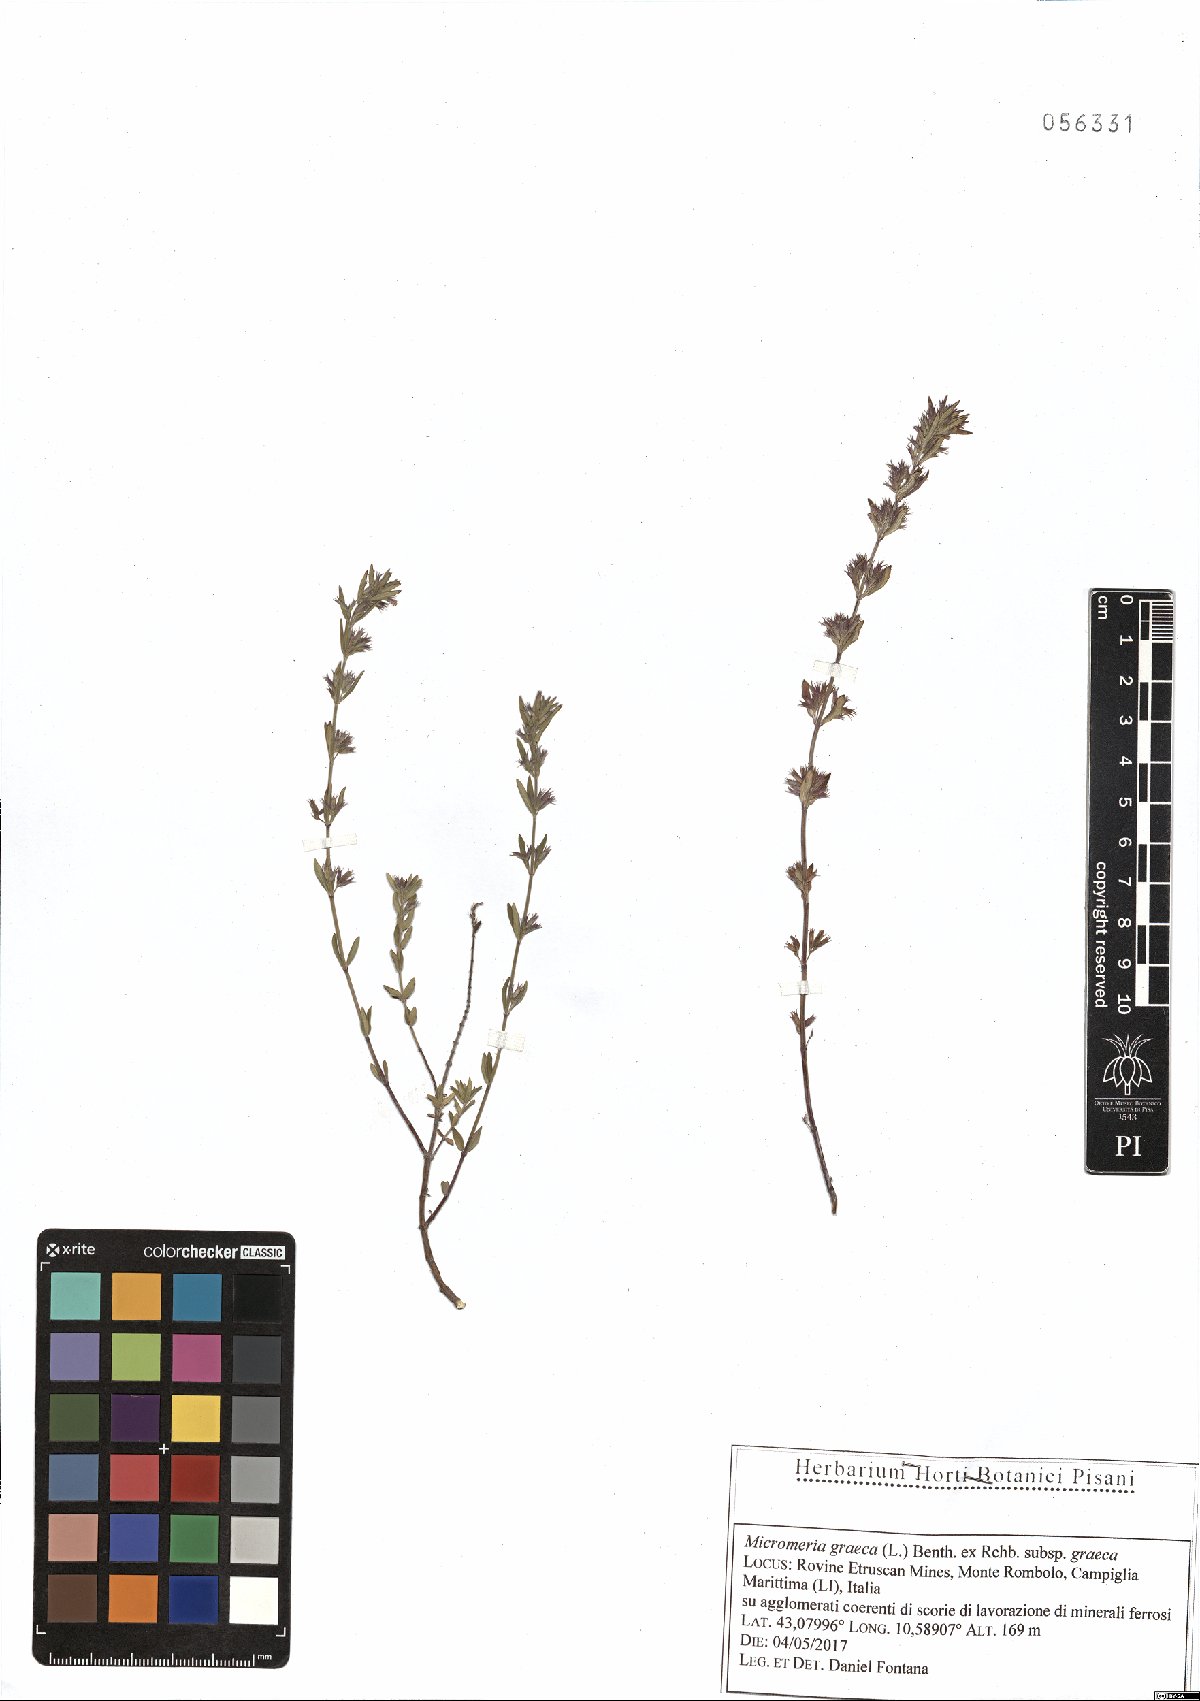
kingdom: Plantae
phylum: Tracheophyta
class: Magnoliopsida
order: Lamiales
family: Lamiaceae
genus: Micromeria
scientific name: Micromeria graeca
